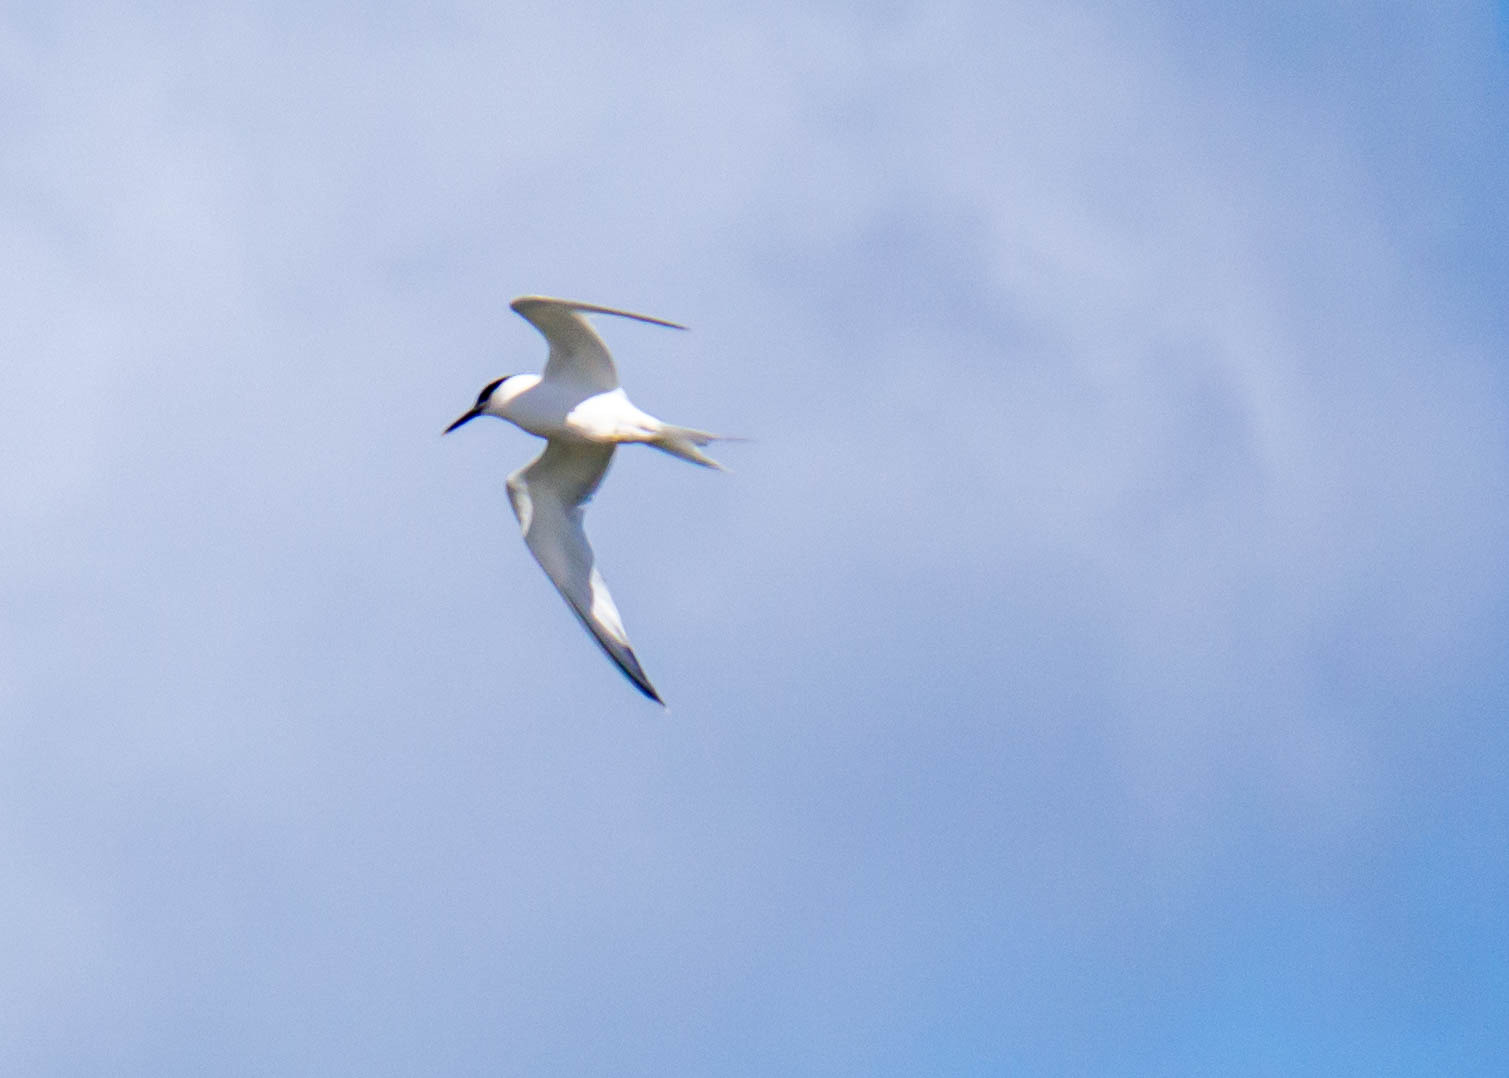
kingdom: Animalia
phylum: Chordata
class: Aves
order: Charadriiformes
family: Laridae
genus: Thalasseus
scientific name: Thalasseus sandvicensis
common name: Splitterne
